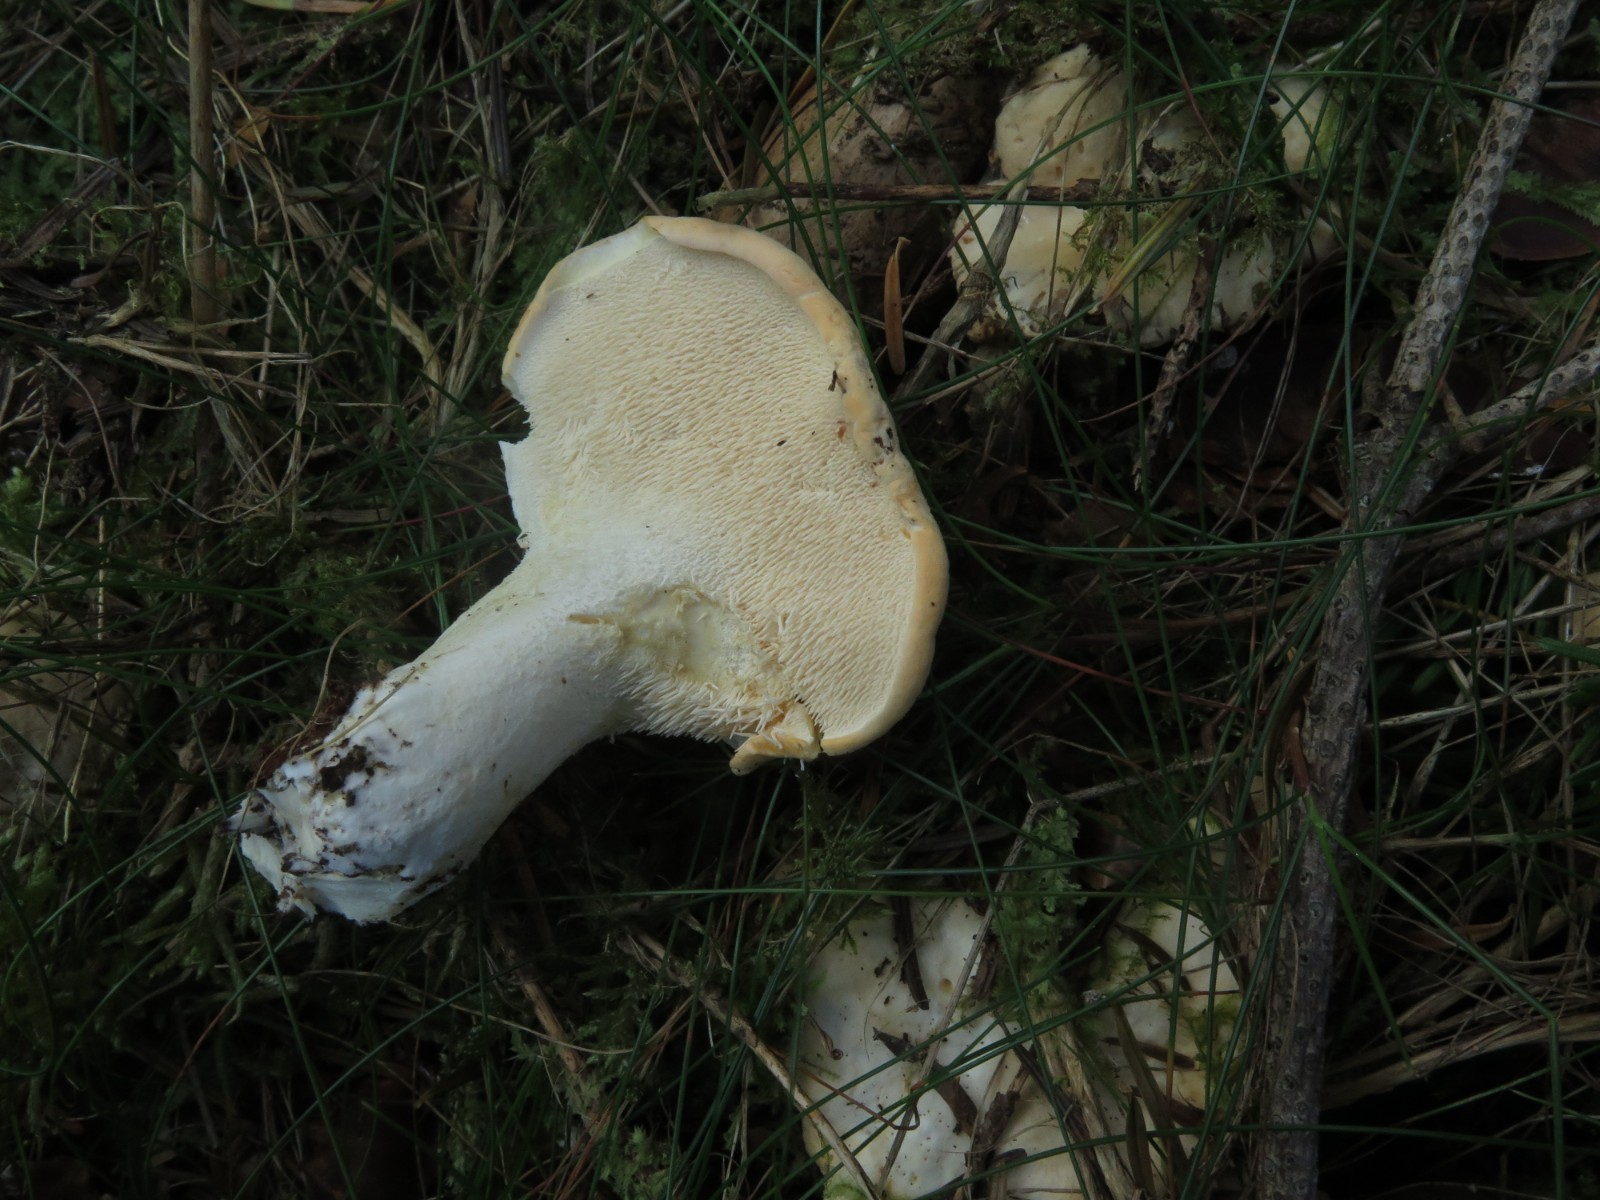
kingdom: Fungi
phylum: Basidiomycota
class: Agaricomycetes
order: Cantharellales
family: Hydnaceae
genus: Hydnum
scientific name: Hydnum repandum
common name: almindelig pigsvamp
